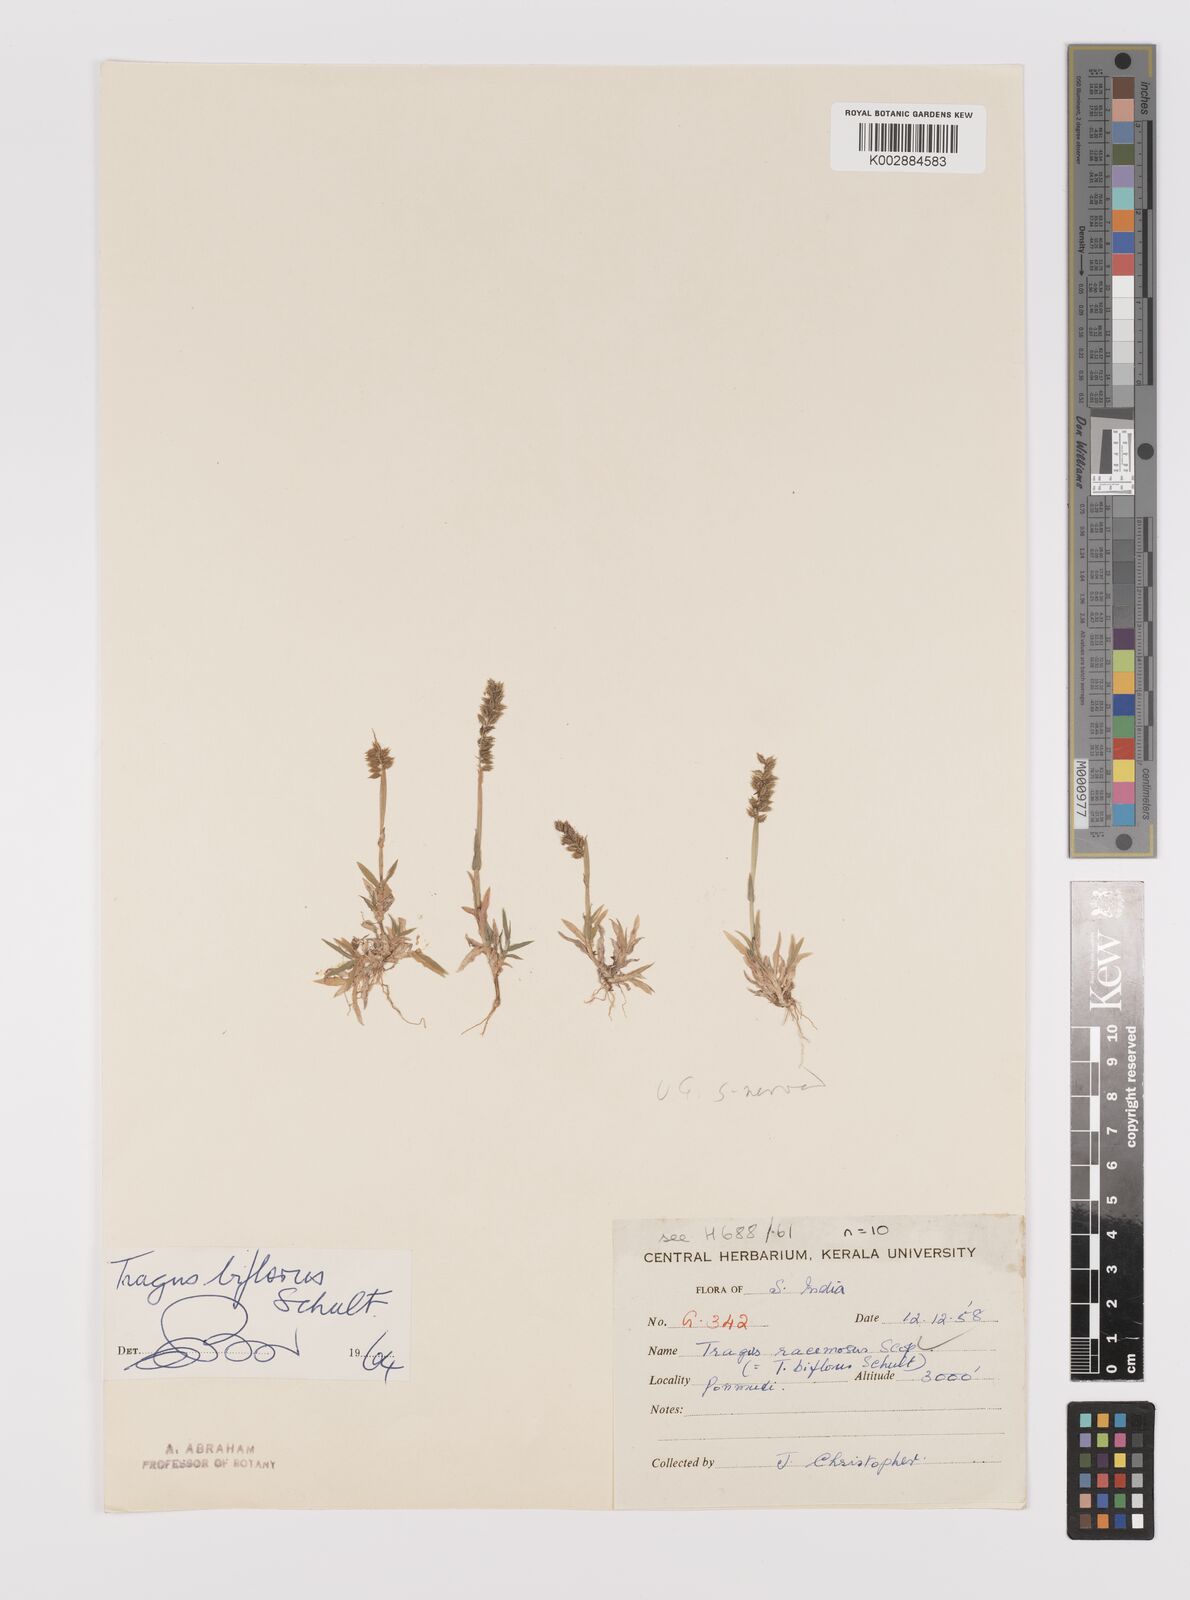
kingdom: Plantae
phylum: Tracheophyta
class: Liliopsida
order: Poales
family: Poaceae
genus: Tragus
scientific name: Tragus mongolorum
